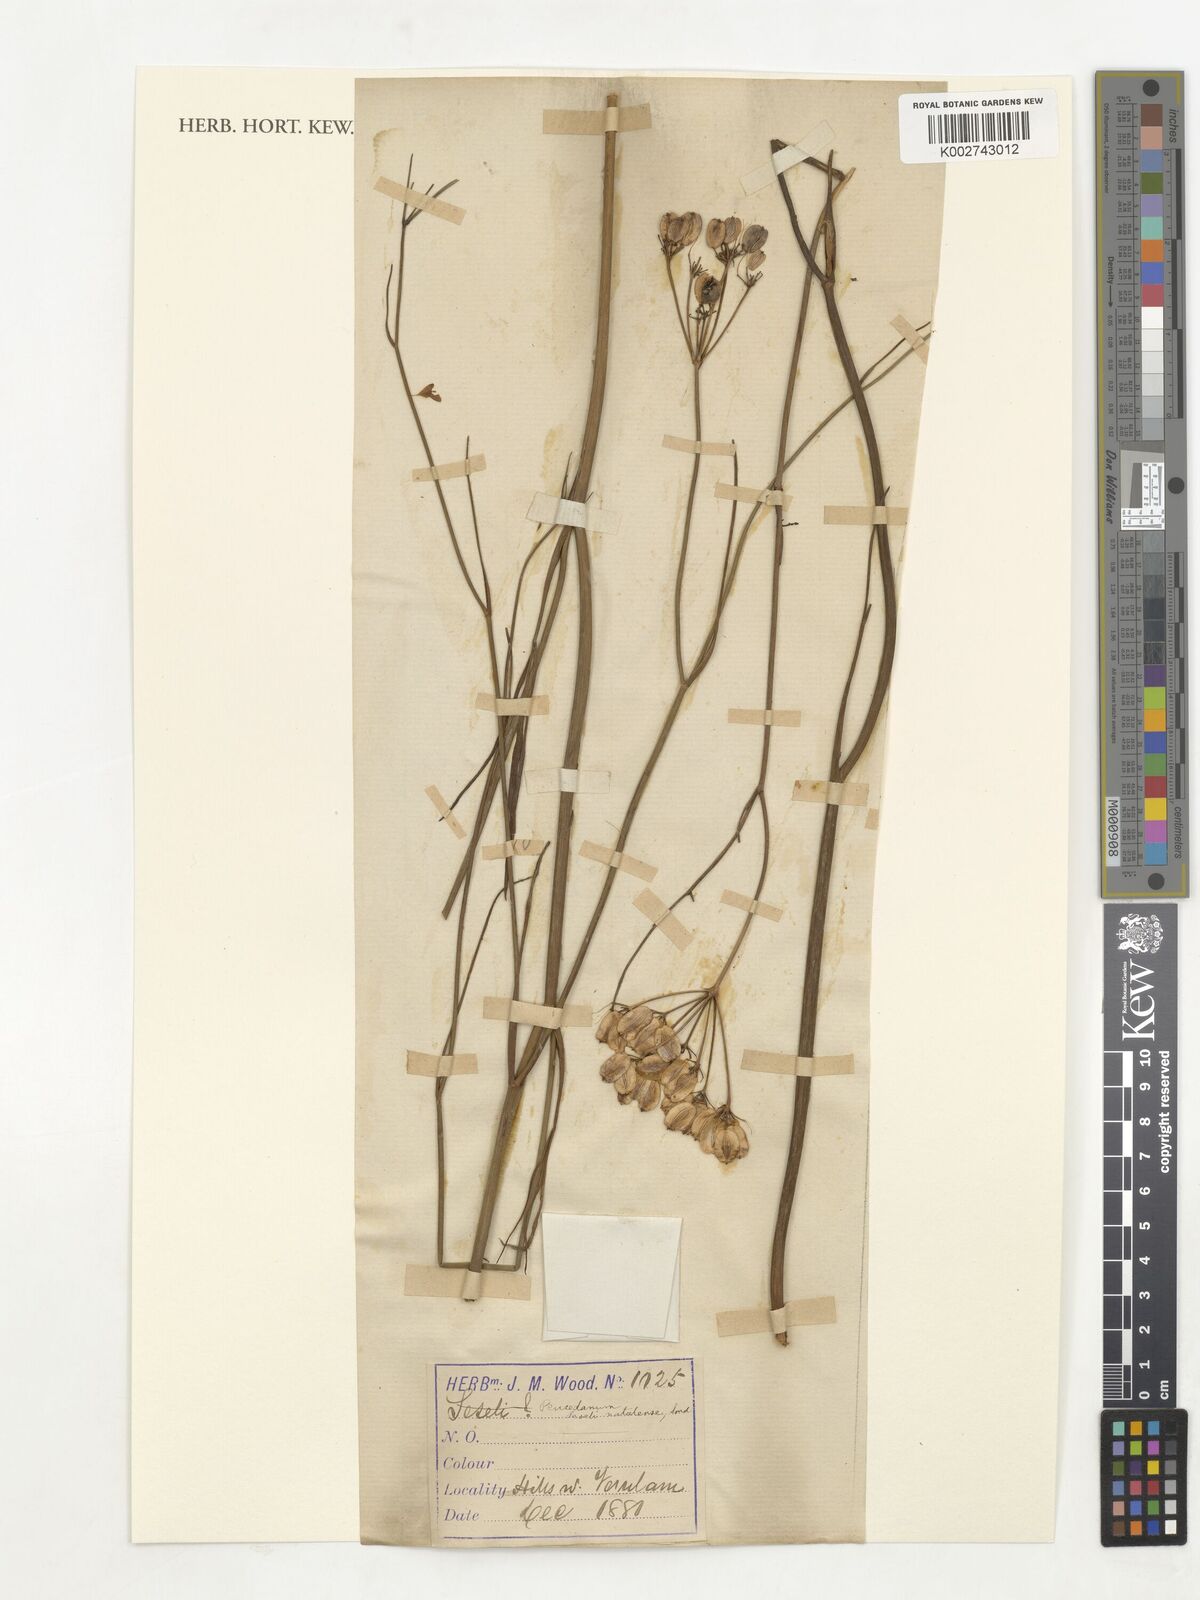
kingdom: Plantae
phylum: Tracheophyta
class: Magnoliopsida
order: Apiales
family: Apiaceae
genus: Afrosciadium
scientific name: Afrosciadium natalense
